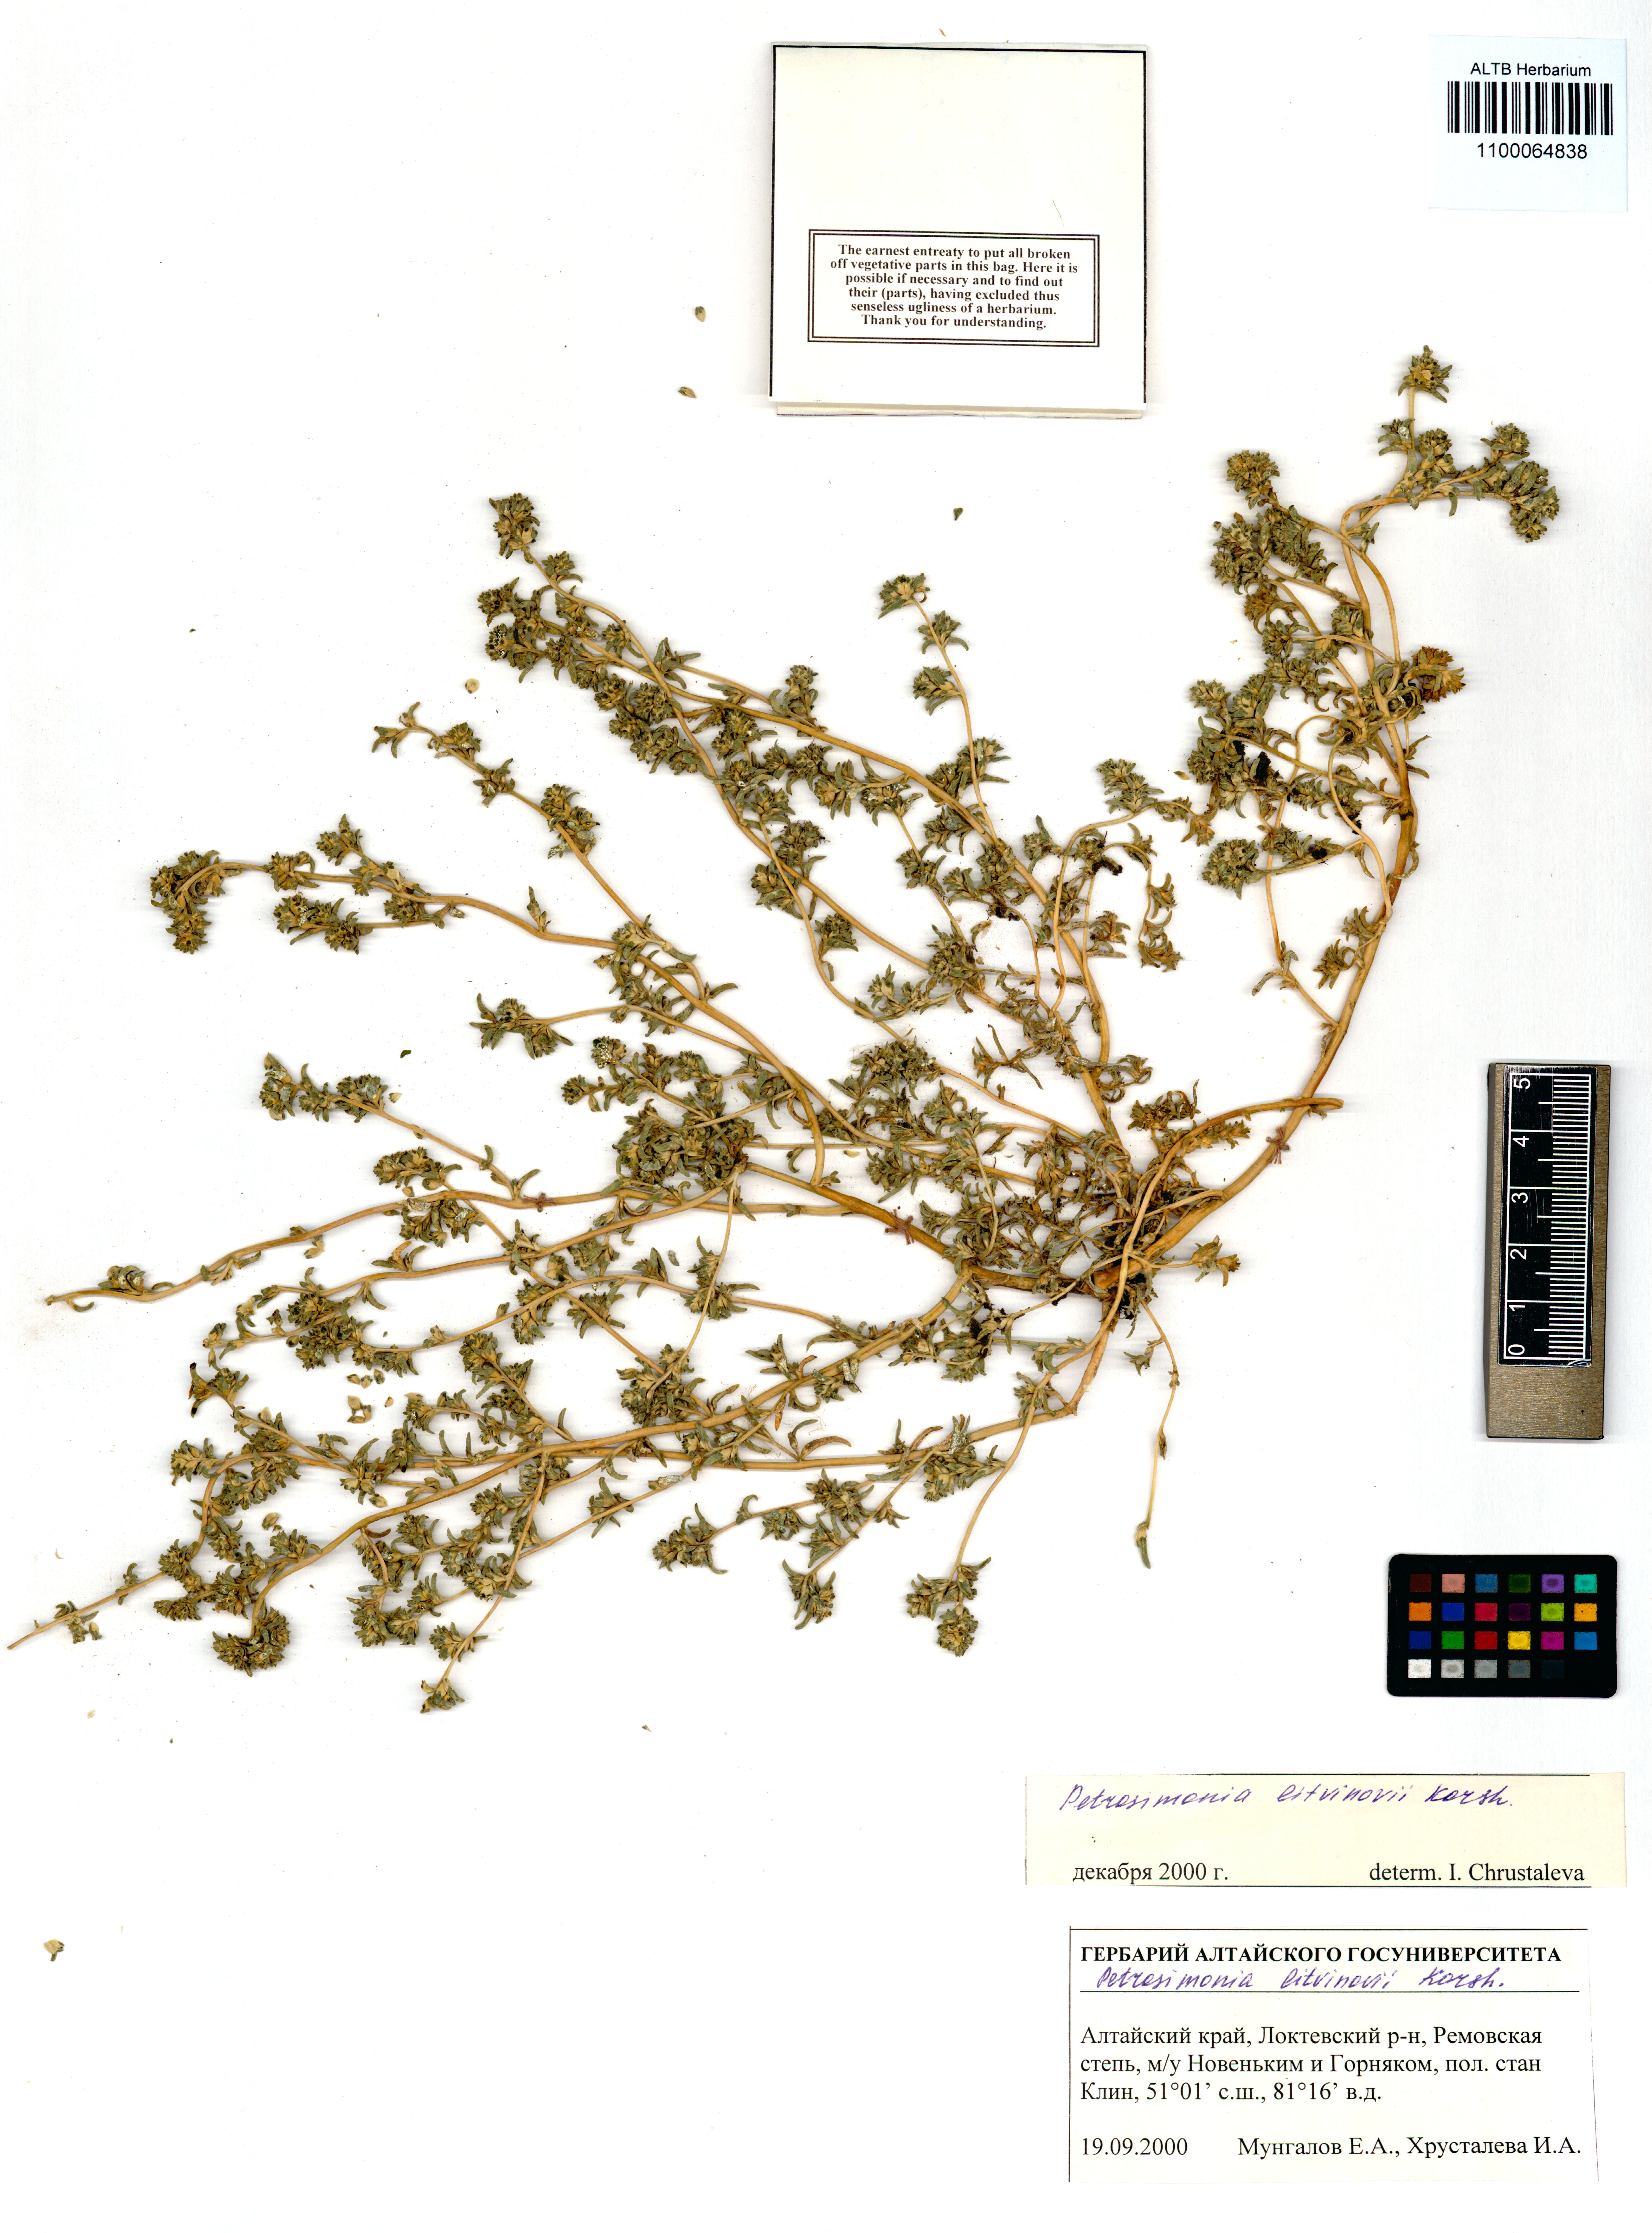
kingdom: Plantae
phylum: Tracheophyta
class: Magnoliopsida
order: Caryophyllales
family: Amaranthaceae
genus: Petrosimonia
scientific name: Petrosimonia litvinowi
